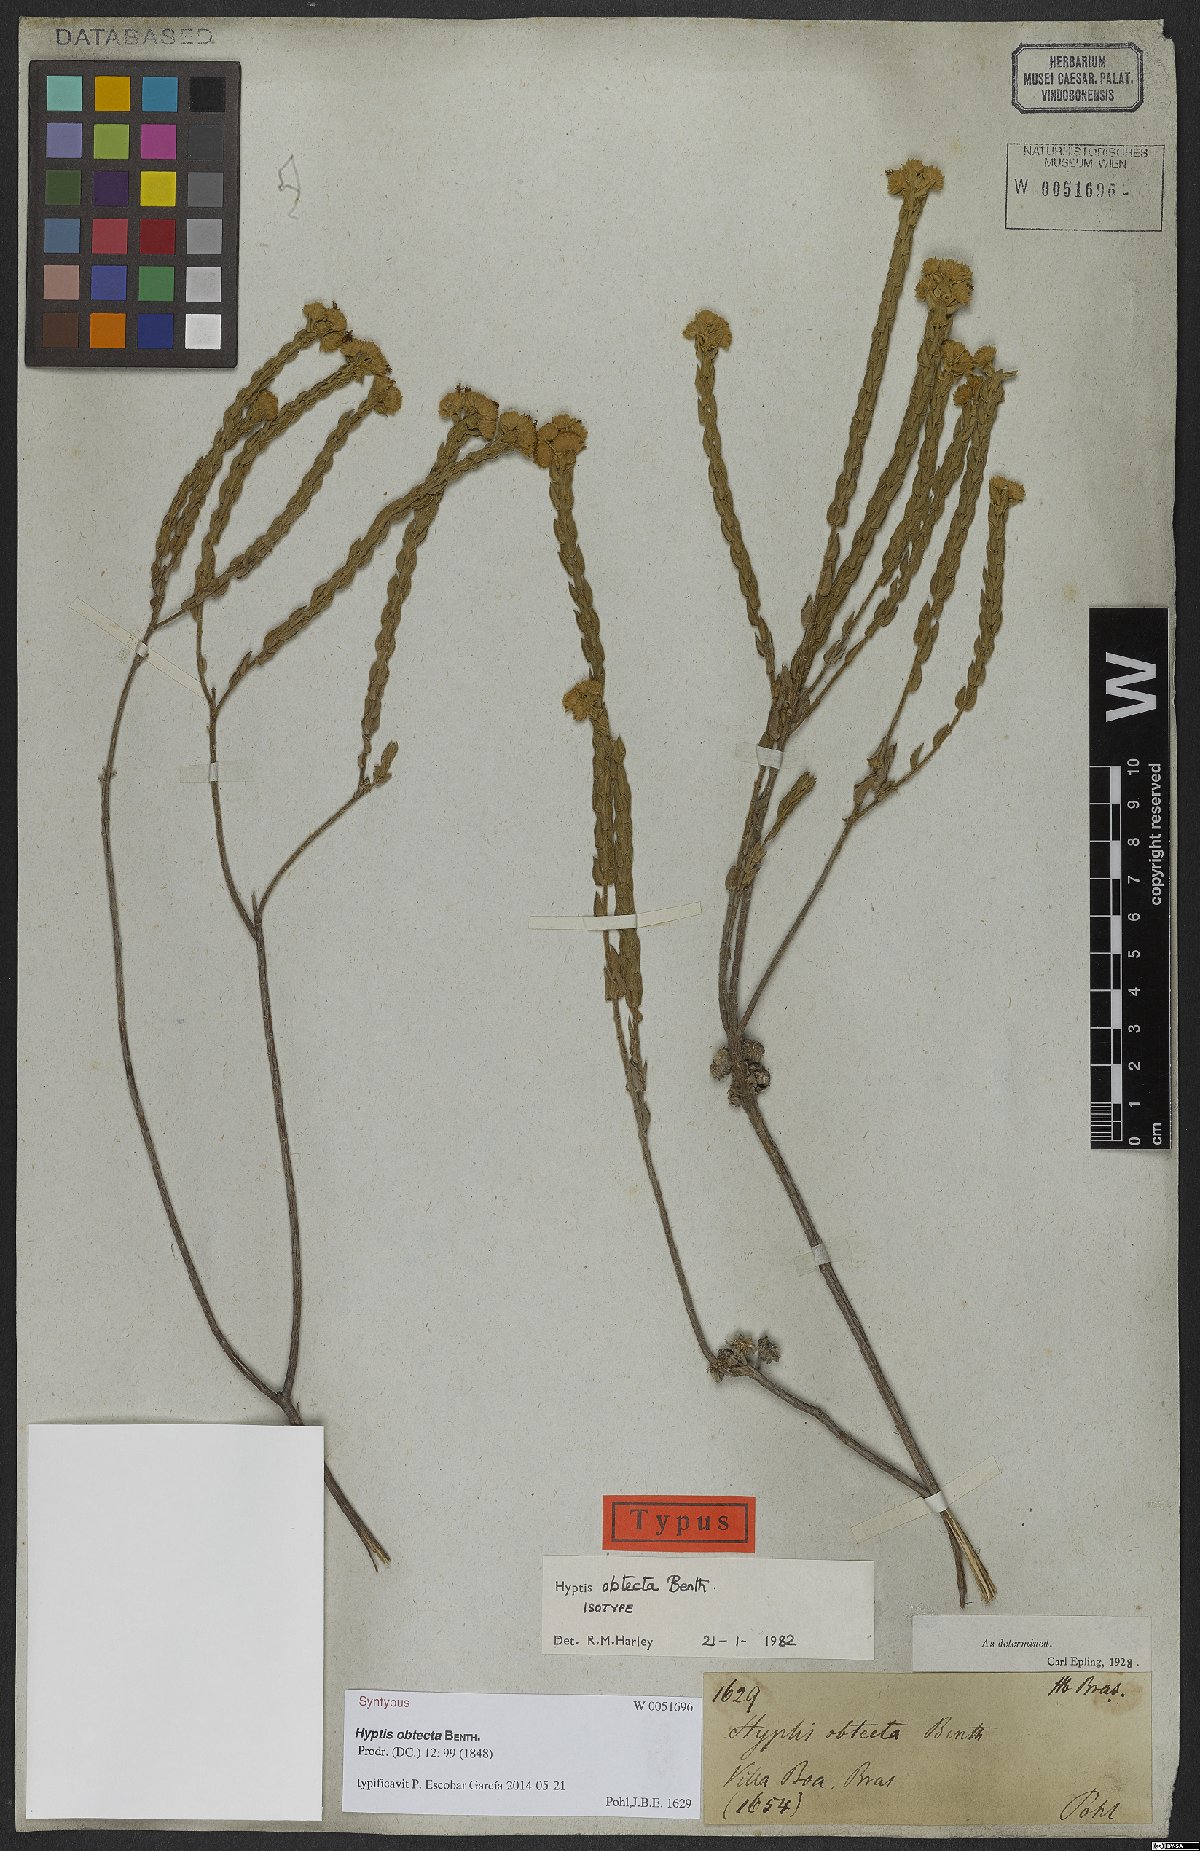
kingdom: Plantae
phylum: Tracheophyta
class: Magnoliopsida
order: Lamiales
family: Lamiaceae
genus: Hyptis
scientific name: Hyptis obtecta
